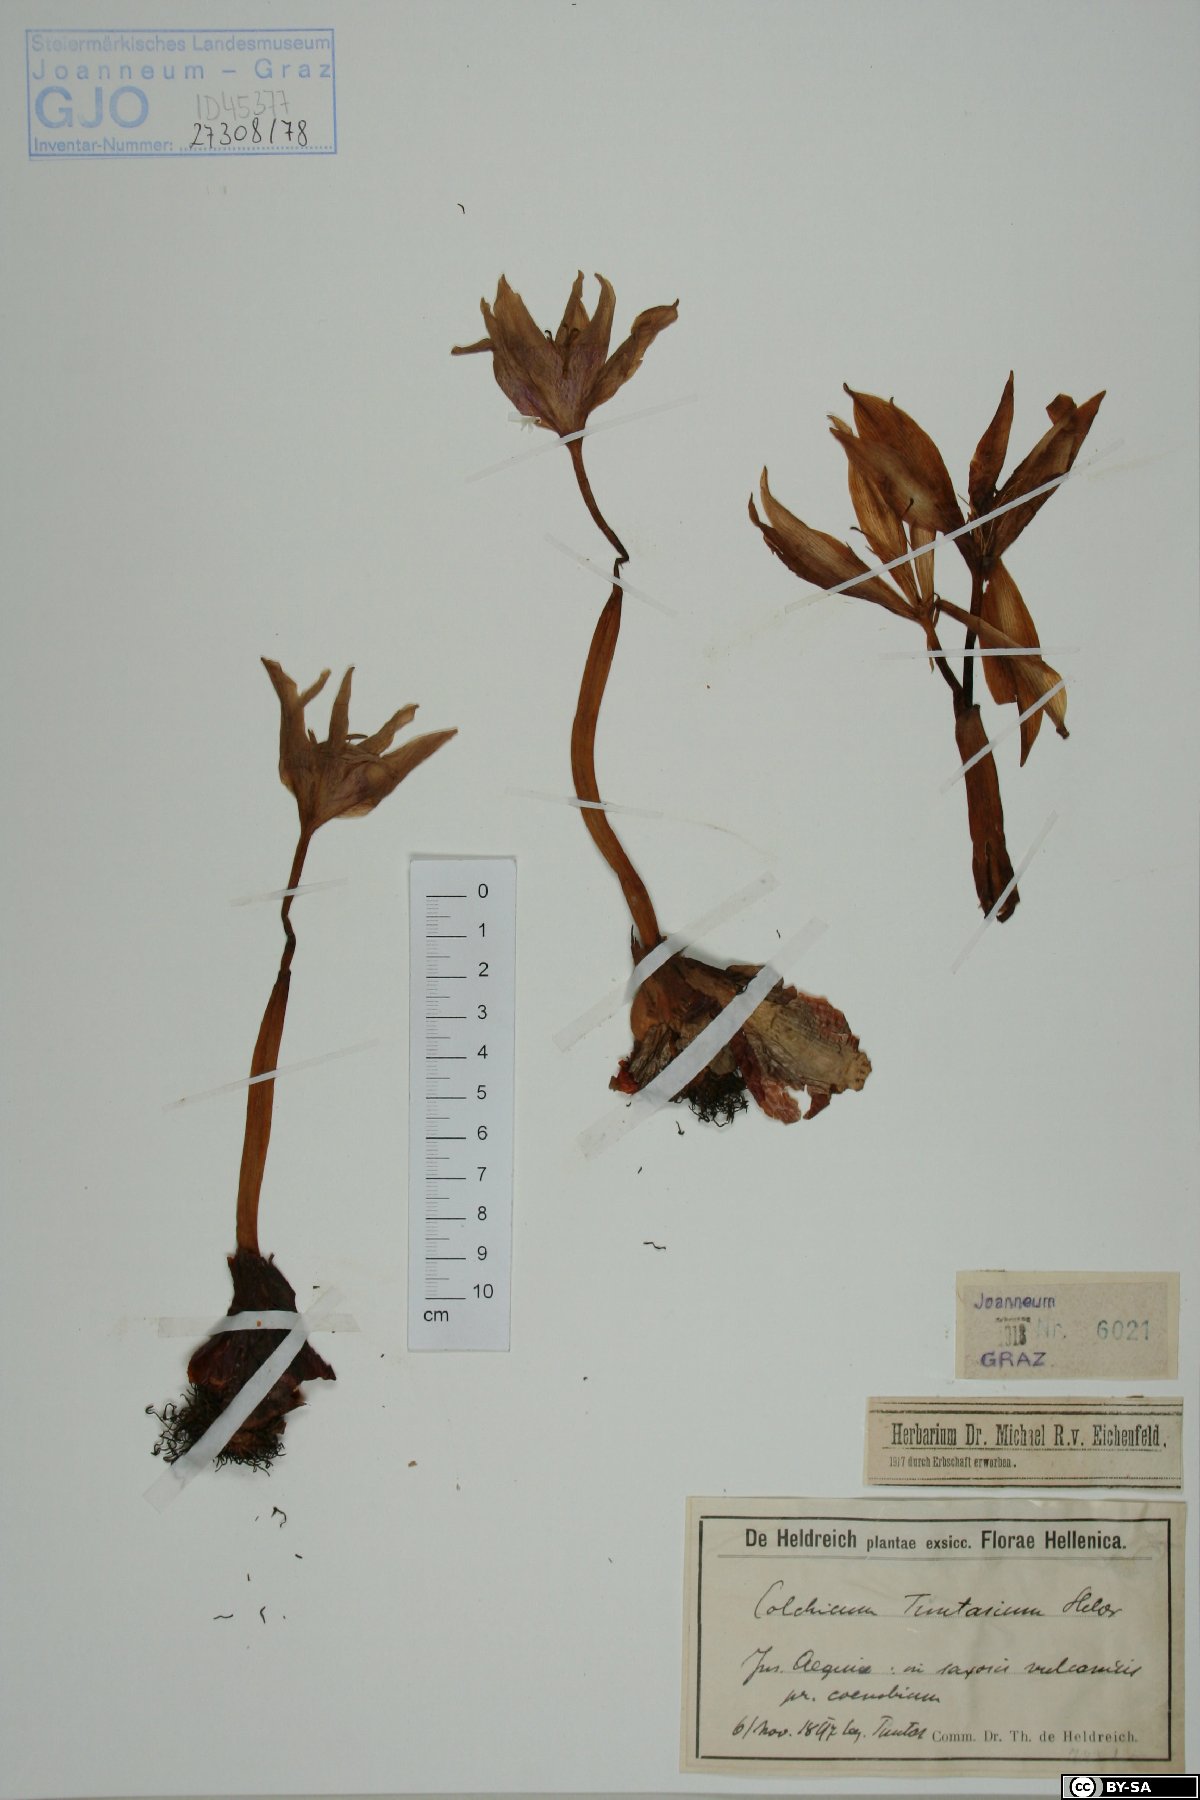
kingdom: Plantae
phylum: Tracheophyta
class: Liliopsida
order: Liliales
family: Colchicaceae
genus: Colchicum
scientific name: Colchicum bivonae
